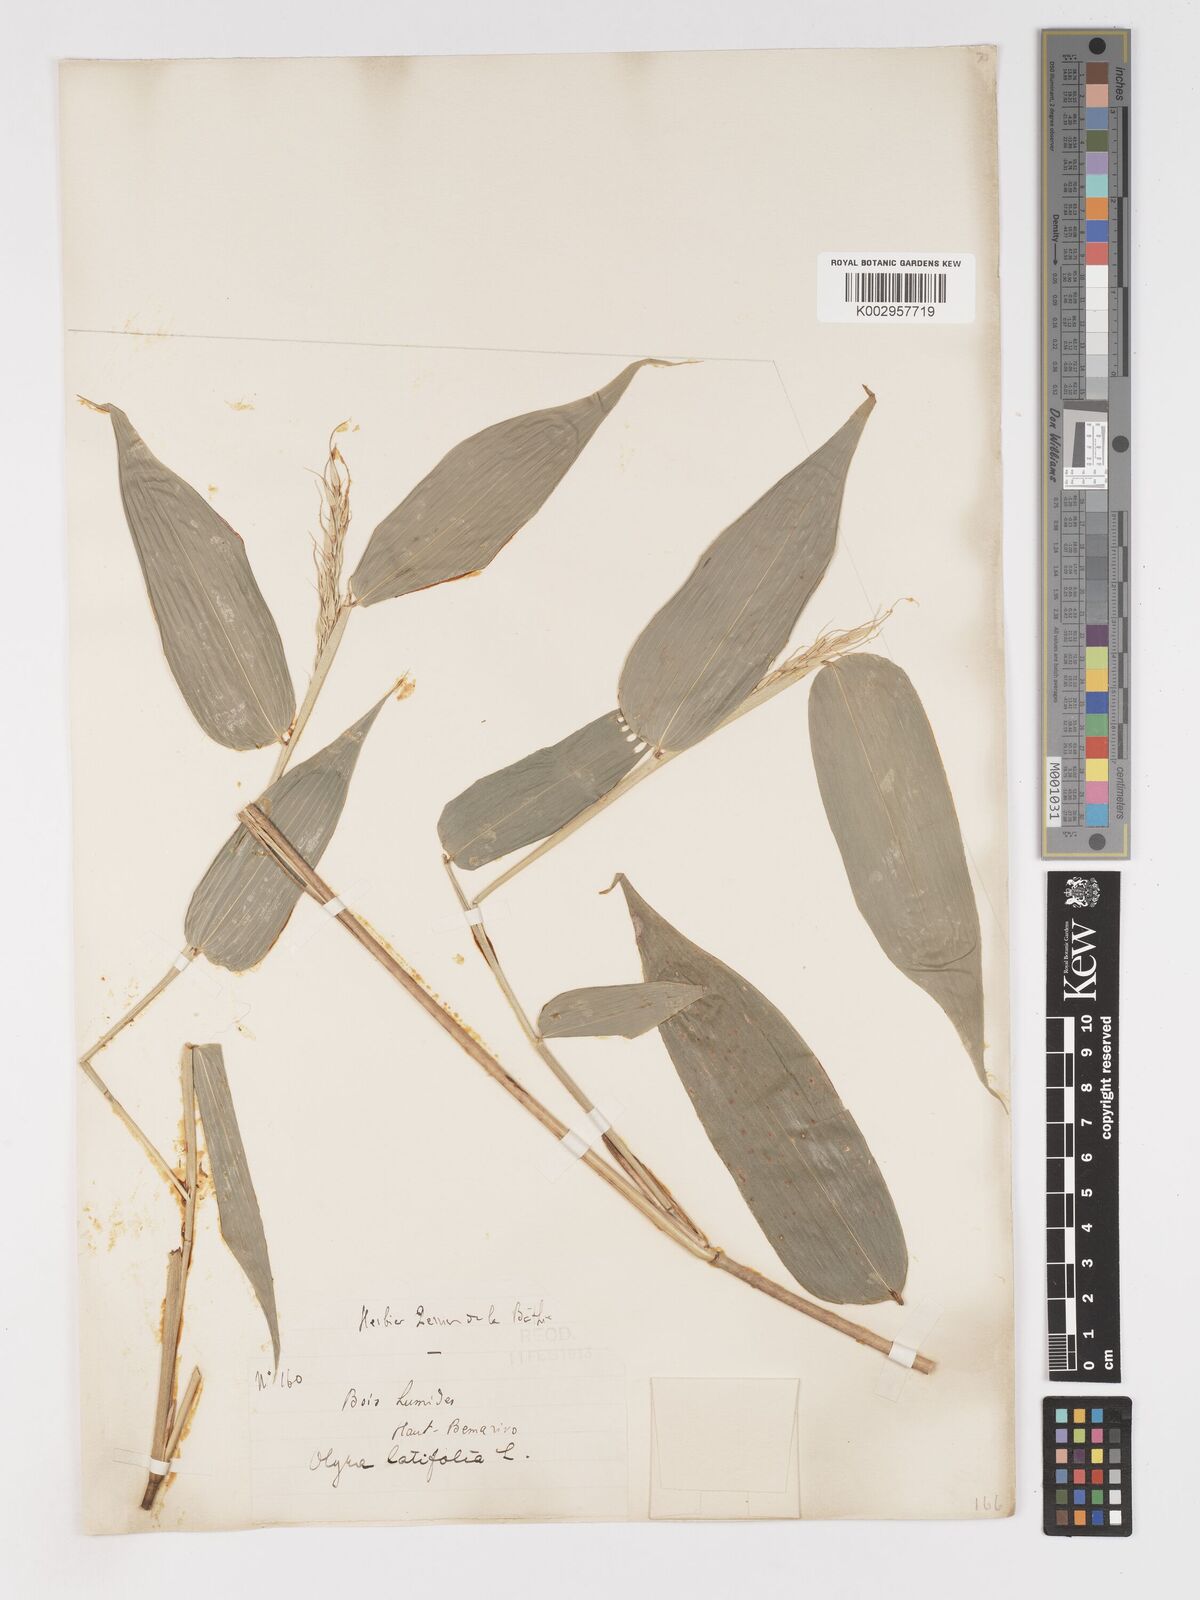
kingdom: Plantae
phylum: Tracheophyta
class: Liliopsida
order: Poales
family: Poaceae
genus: Olyra
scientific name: Olyra latifolia
